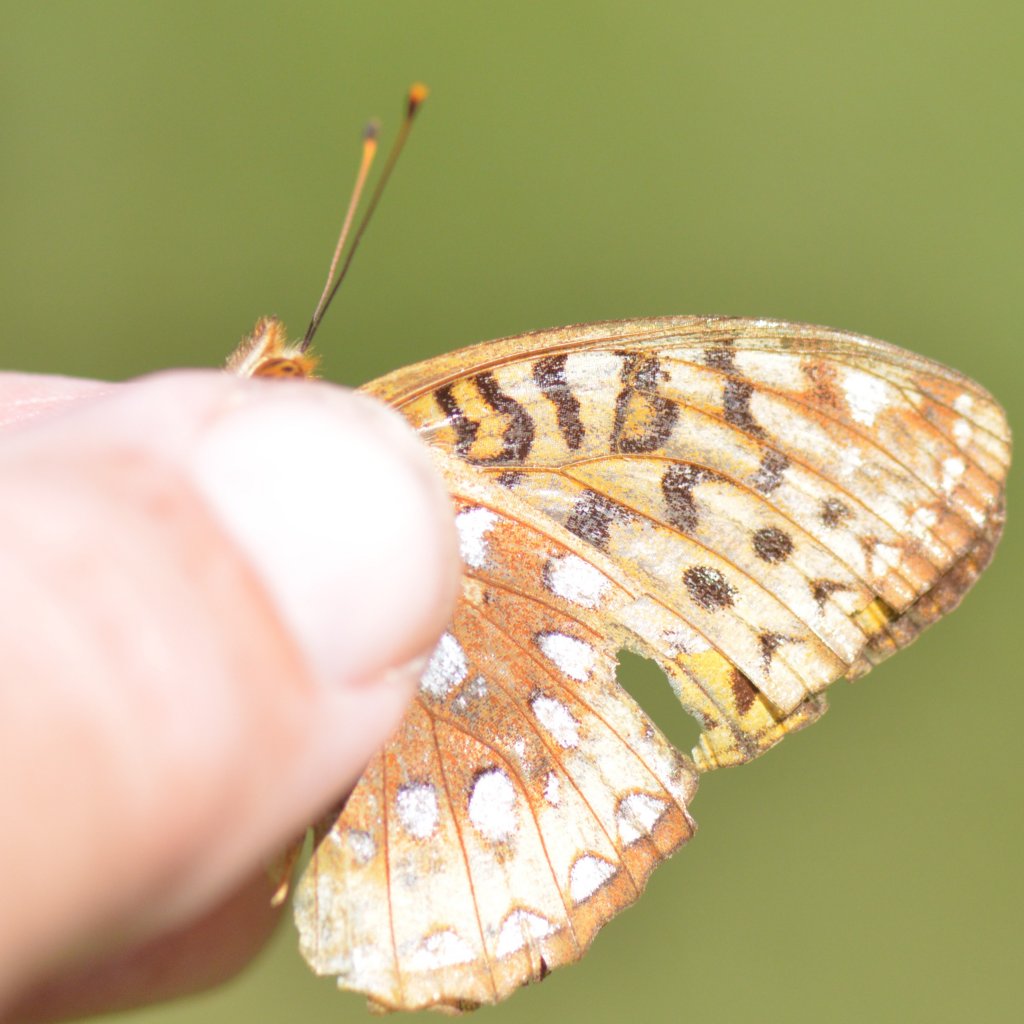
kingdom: Animalia
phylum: Arthropoda
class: Insecta
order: Lepidoptera
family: Nymphalidae
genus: Speyeria
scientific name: Speyeria cybele
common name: Great Spangled Fritillary
